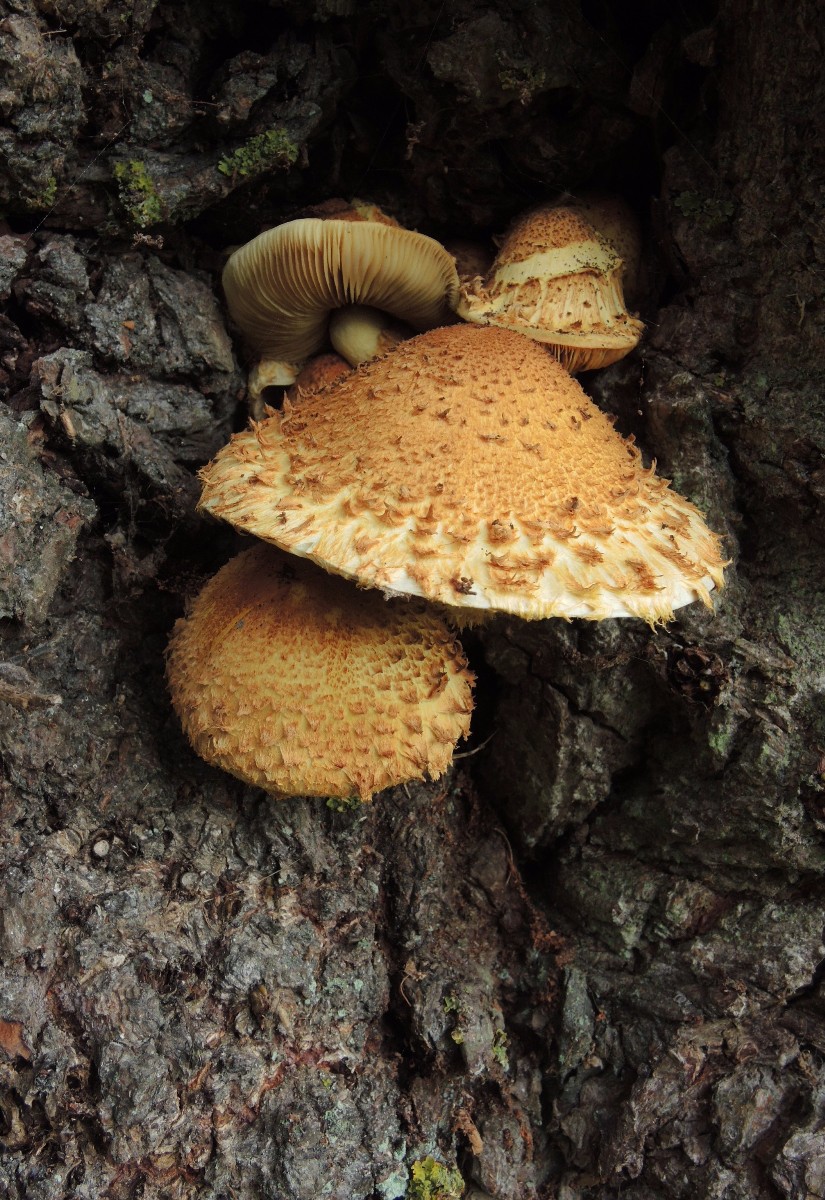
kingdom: Fungi
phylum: Basidiomycota
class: Agaricomycetes
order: Agaricales
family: Strophariaceae
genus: Pholiota
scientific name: Pholiota squarrosa
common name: krumskællet skælhat
